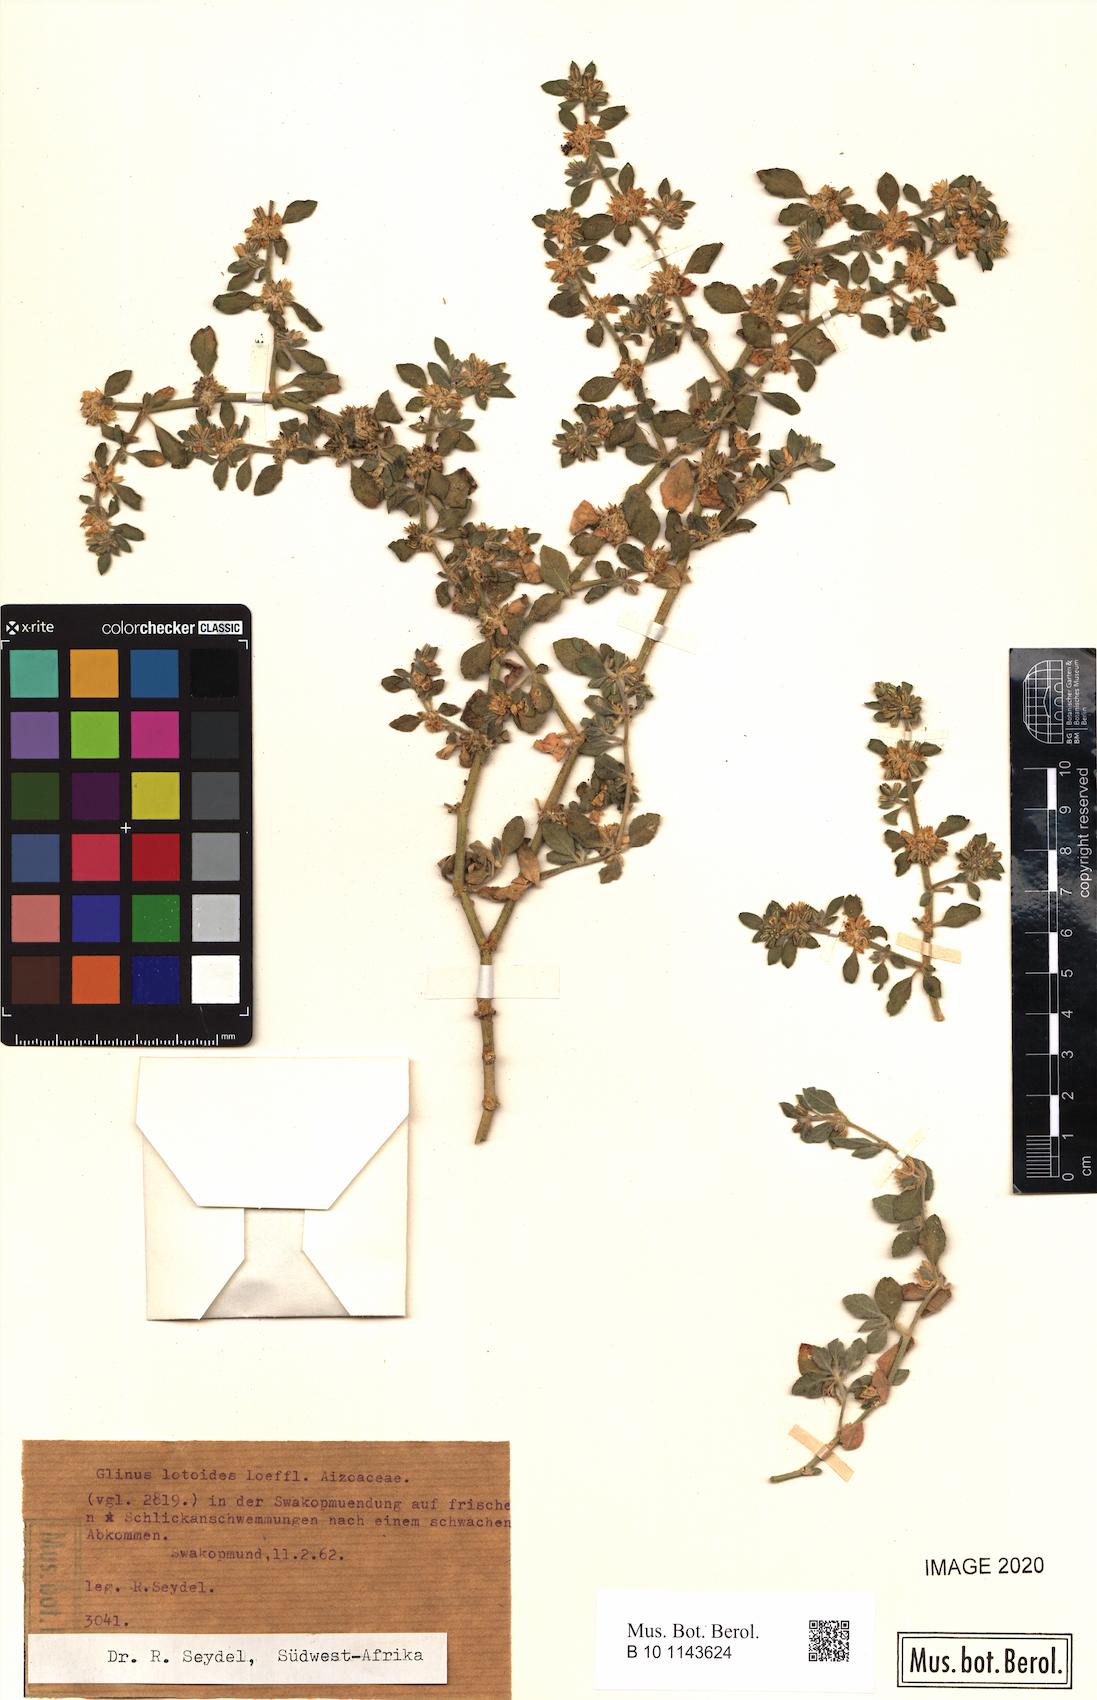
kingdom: Plantae
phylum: Tracheophyta
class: Magnoliopsida
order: Caryophyllales
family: Molluginaceae
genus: Glinus
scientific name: Glinus lotoides
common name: Lotus sweetjuice
